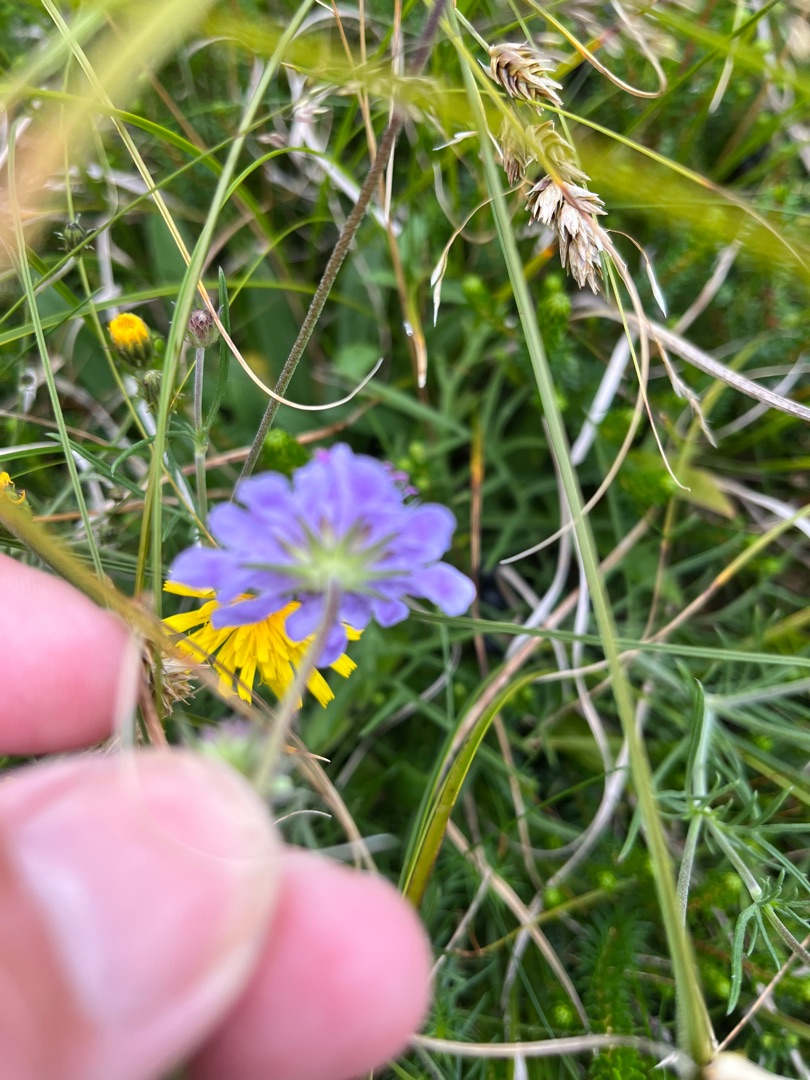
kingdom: Plantae
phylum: Tracheophyta
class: Magnoliopsida
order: Dipsacales
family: Caprifoliaceae
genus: Scabiosa
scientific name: Scabiosa canescens
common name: Vellugtende skabiose
